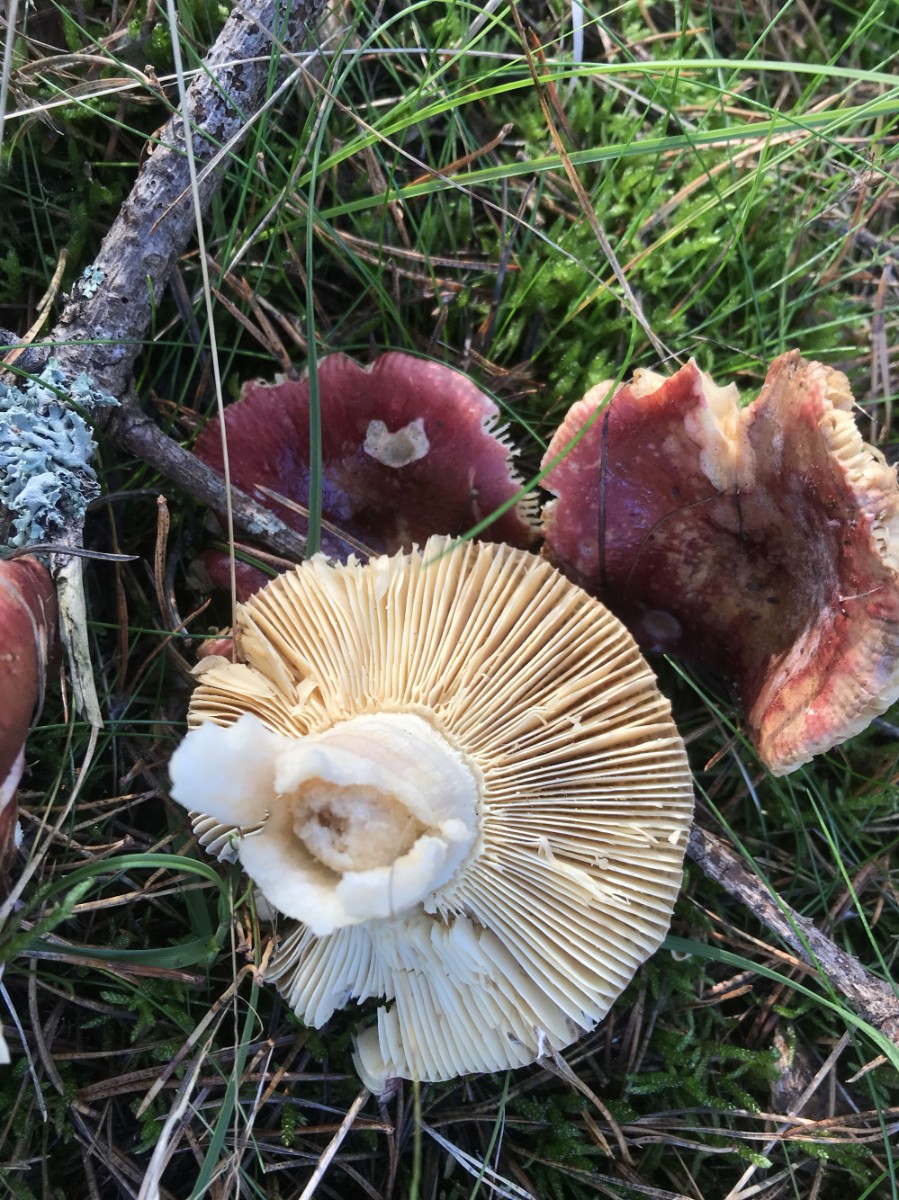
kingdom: Fungi
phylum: Basidiomycota
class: Agaricomycetes
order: Russulales
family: Russulaceae
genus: Russula
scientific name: Russula
